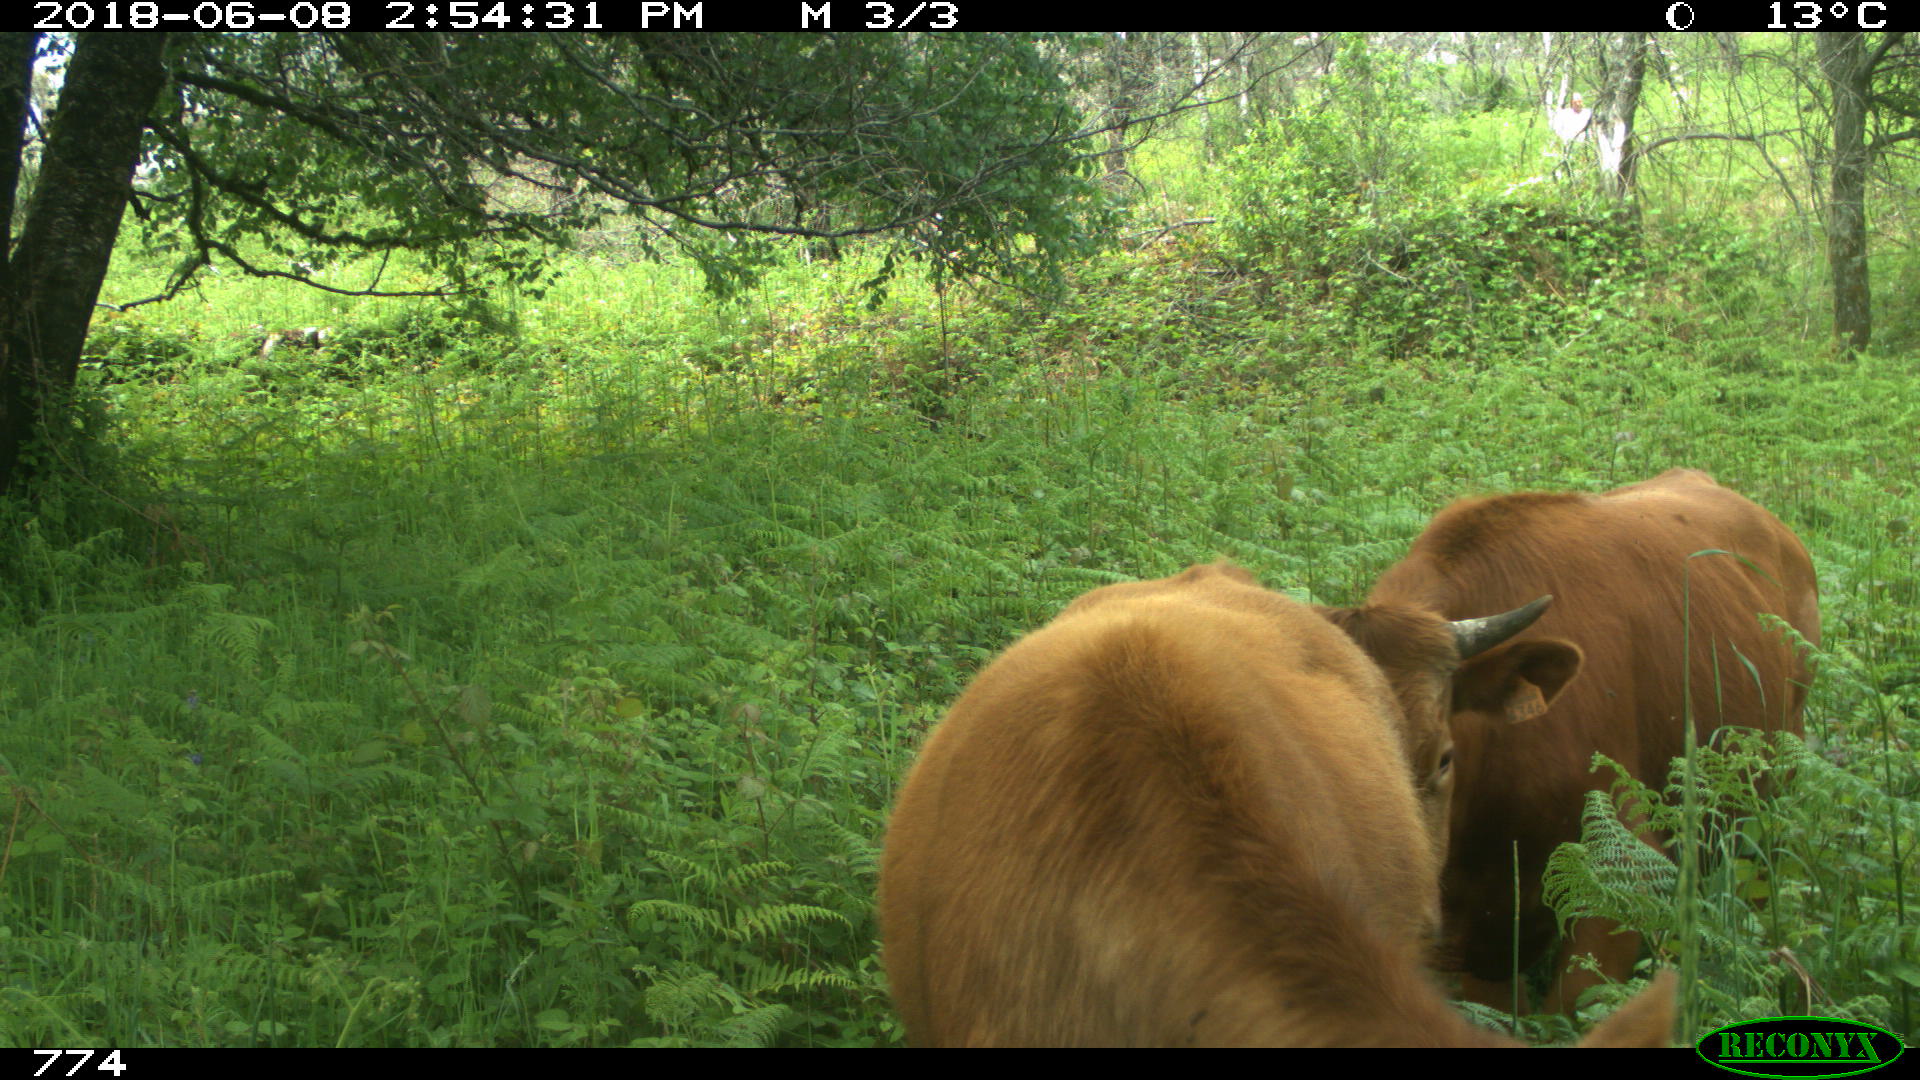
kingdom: Animalia
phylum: Chordata
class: Mammalia
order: Artiodactyla
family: Bovidae
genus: Bos
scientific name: Bos taurus
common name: Domesticated cattle
